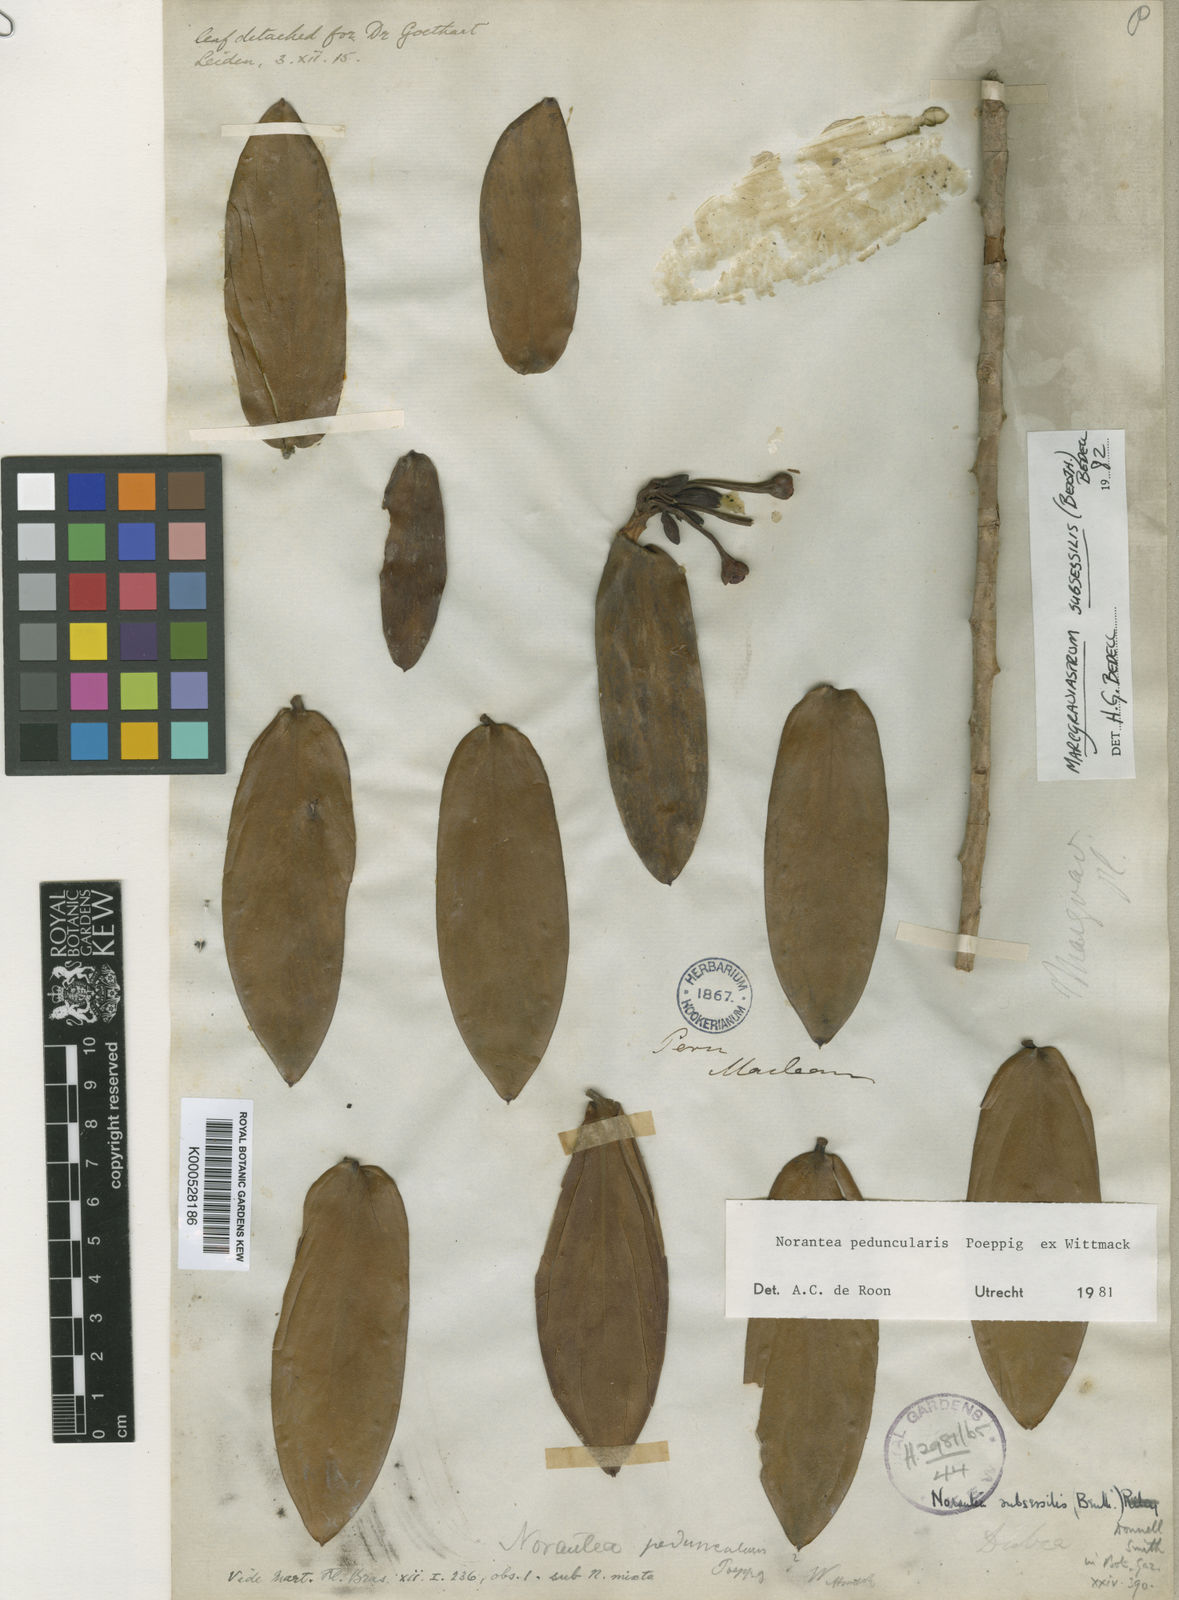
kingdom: Plantae
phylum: Tracheophyta
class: Magnoliopsida
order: Ericales
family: Marcgraviaceae
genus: Marcgraviastrum
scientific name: Marcgraviastrum subsessile
